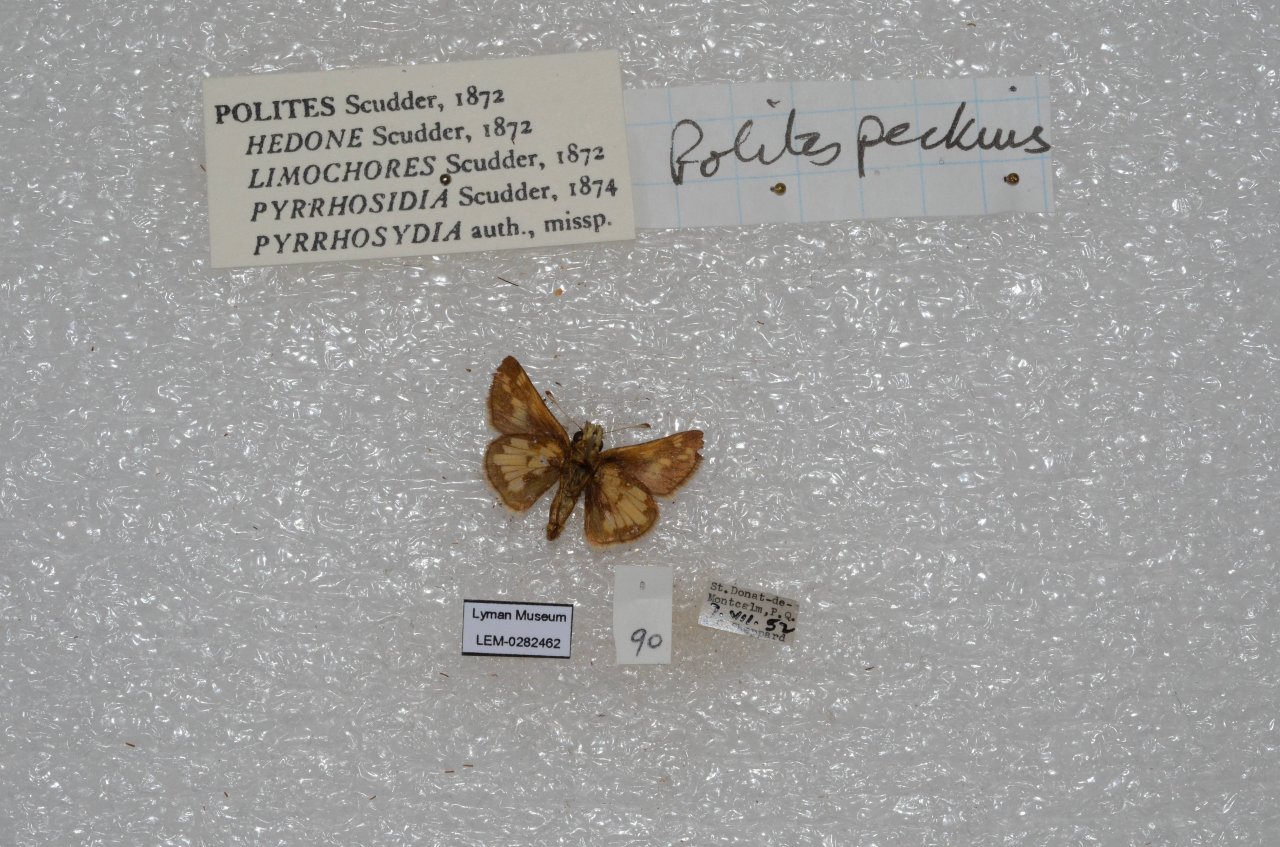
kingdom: Animalia
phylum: Arthropoda
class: Insecta
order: Lepidoptera
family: Hesperiidae
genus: Polites
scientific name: Polites coras
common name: Peck's Skipper
